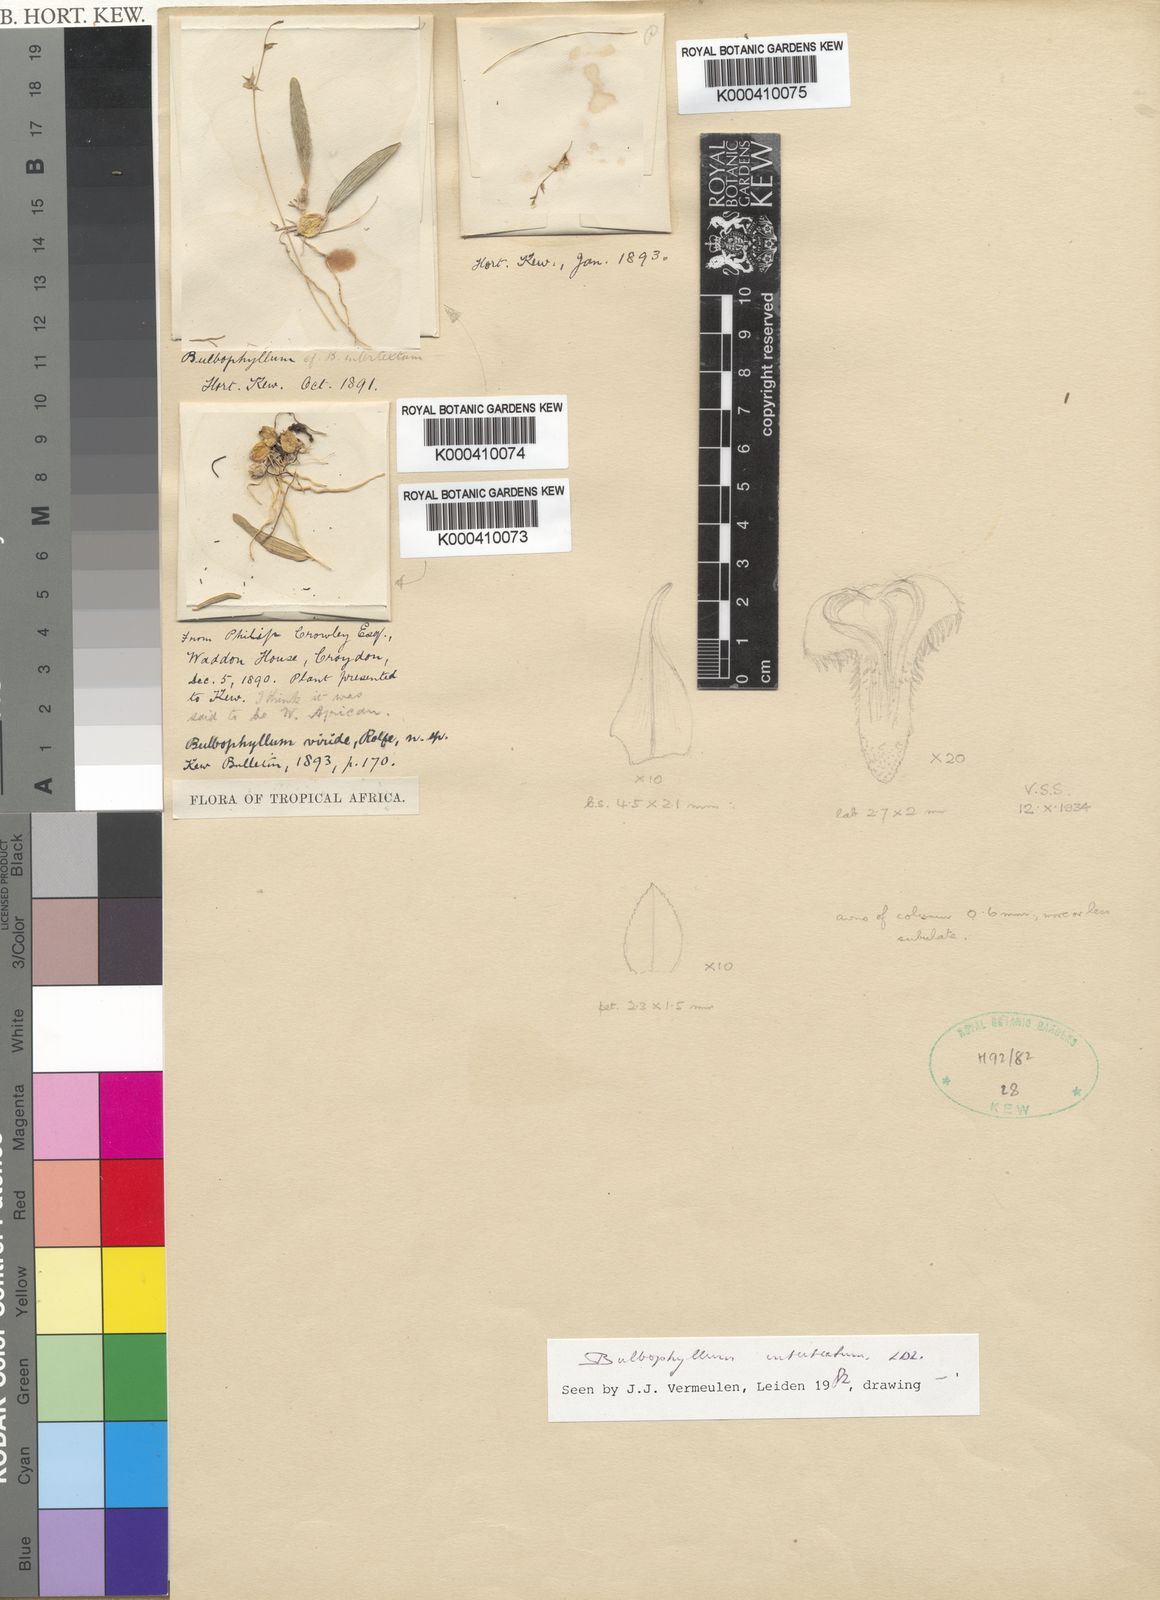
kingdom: Plantae
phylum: Tracheophyta
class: Liliopsida
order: Asparagales
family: Orchidaceae
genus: Bulbophyllum
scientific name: Bulbophyllum intertextum
